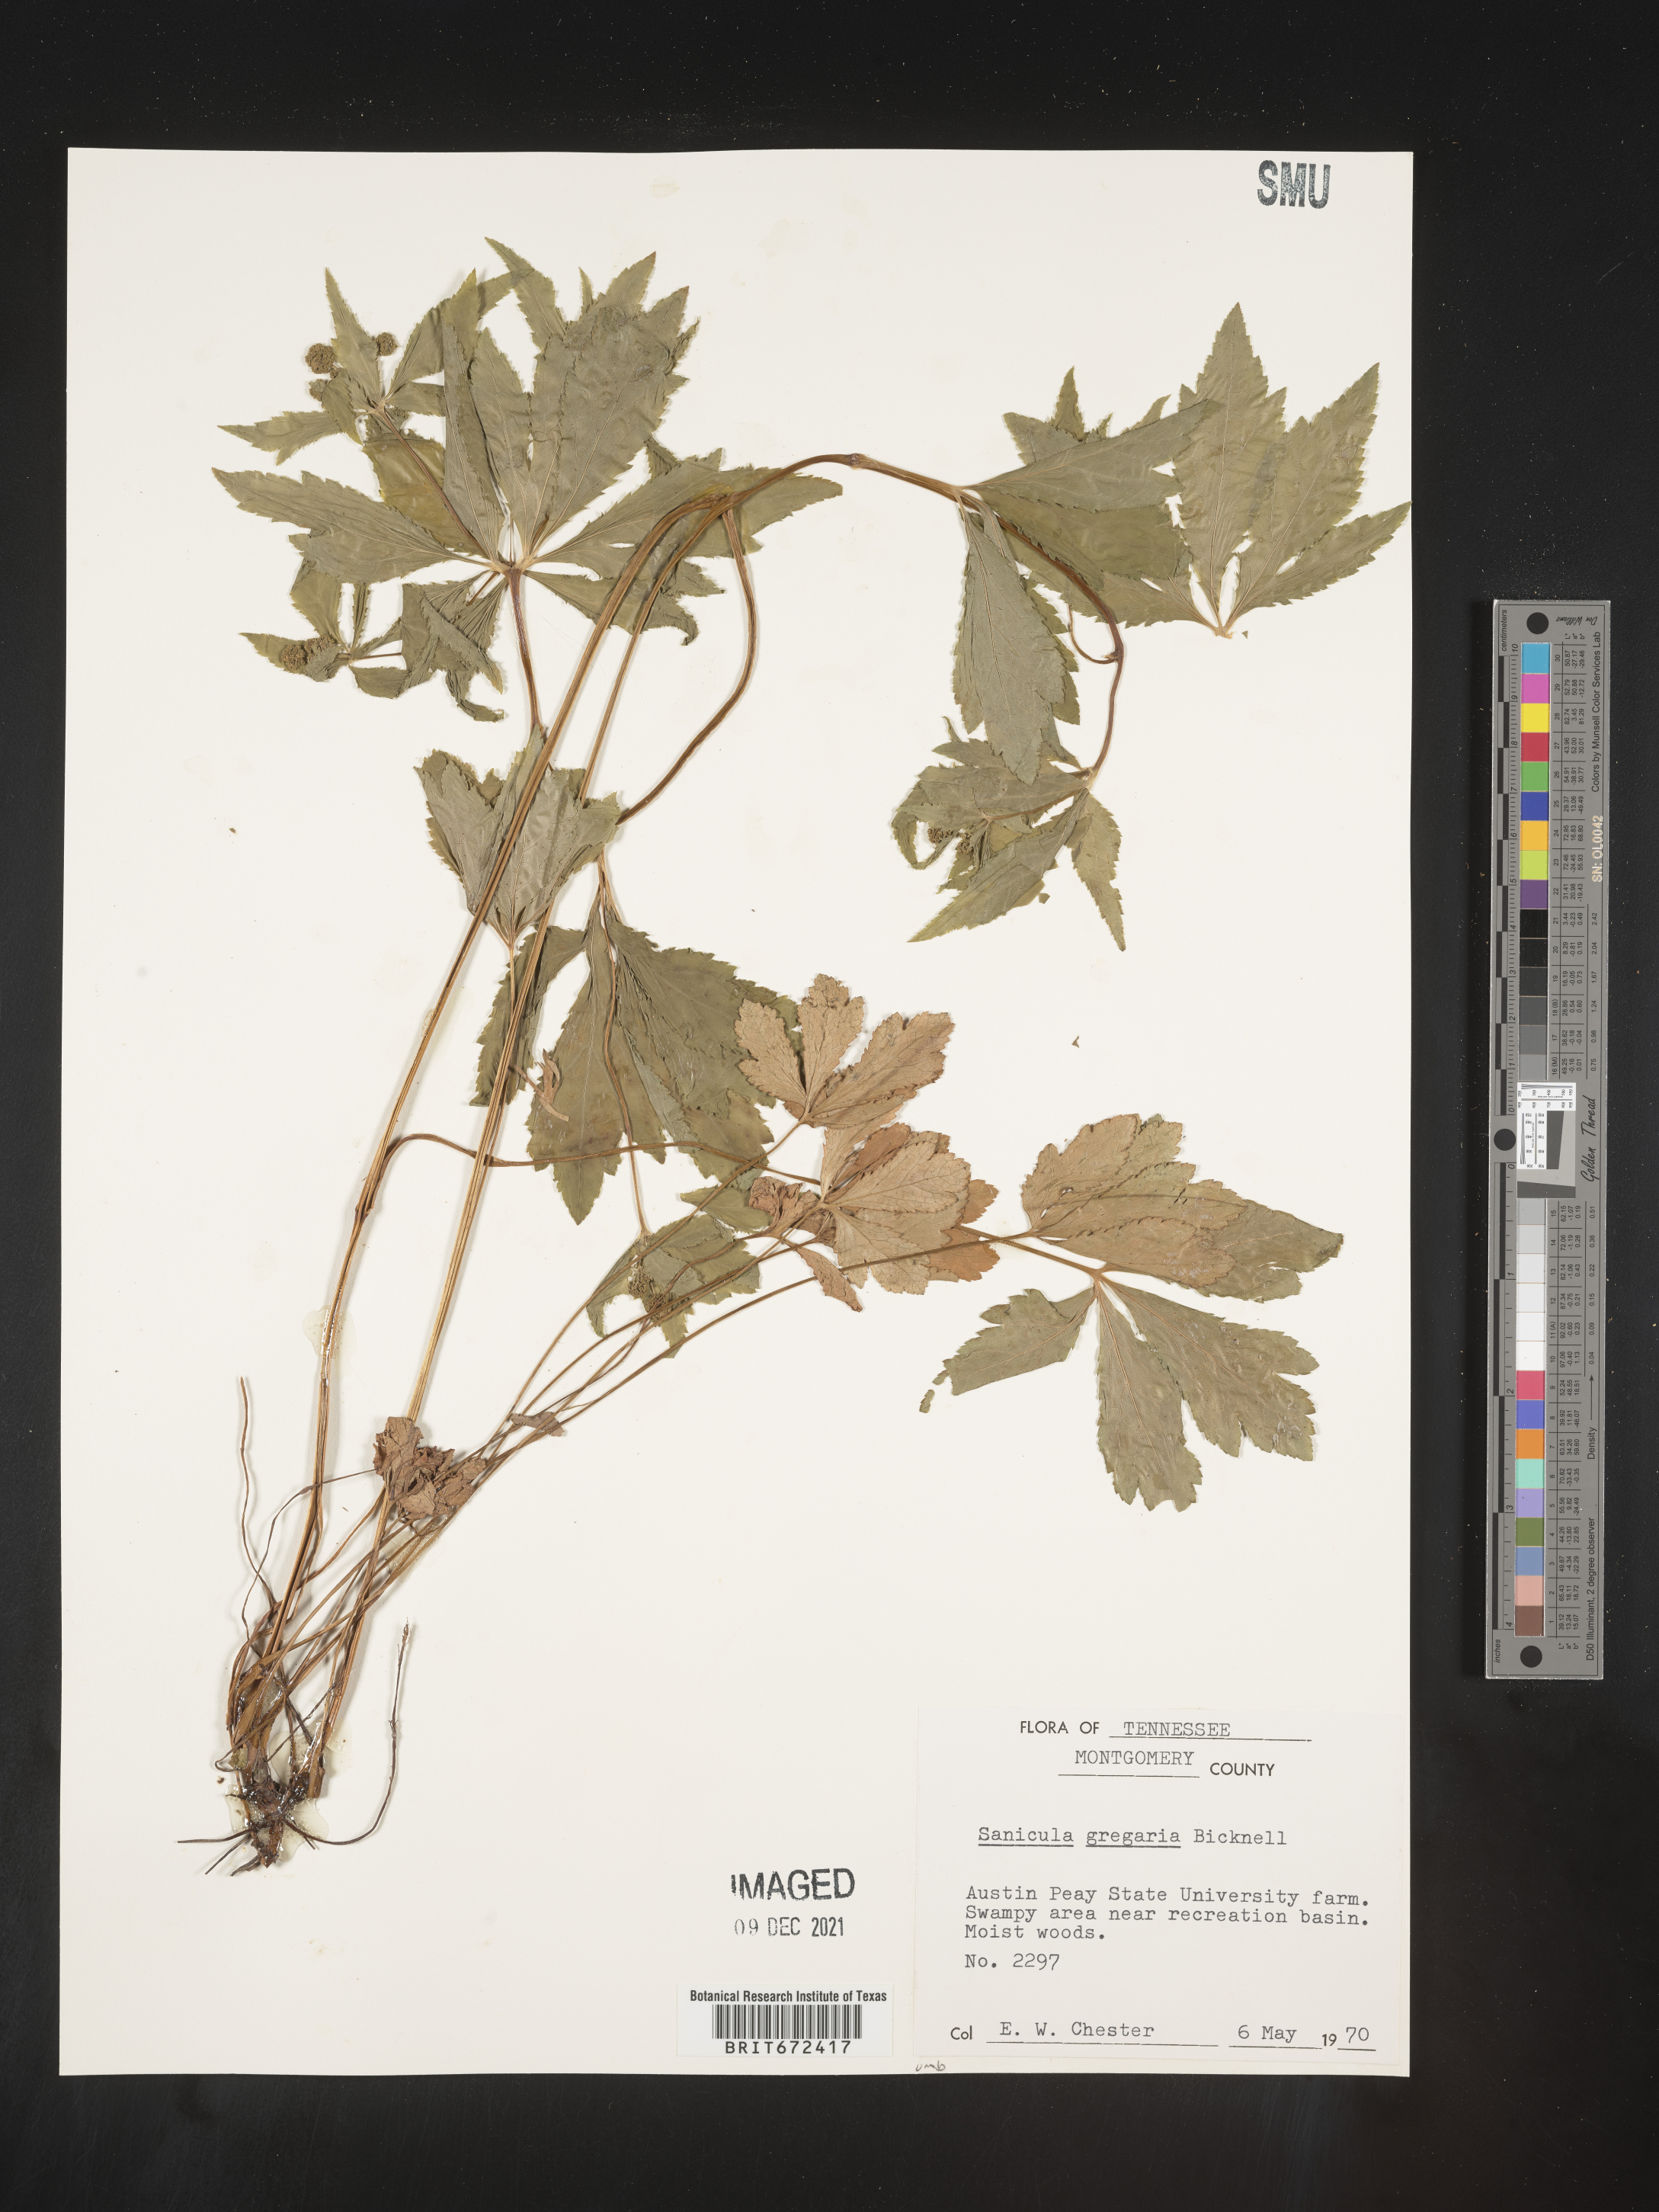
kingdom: Plantae
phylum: Tracheophyta
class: Magnoliopsida
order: Apiales
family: Apiaceae
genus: Sanicula
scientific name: Sanicula odorata
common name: Cluster sanicle
